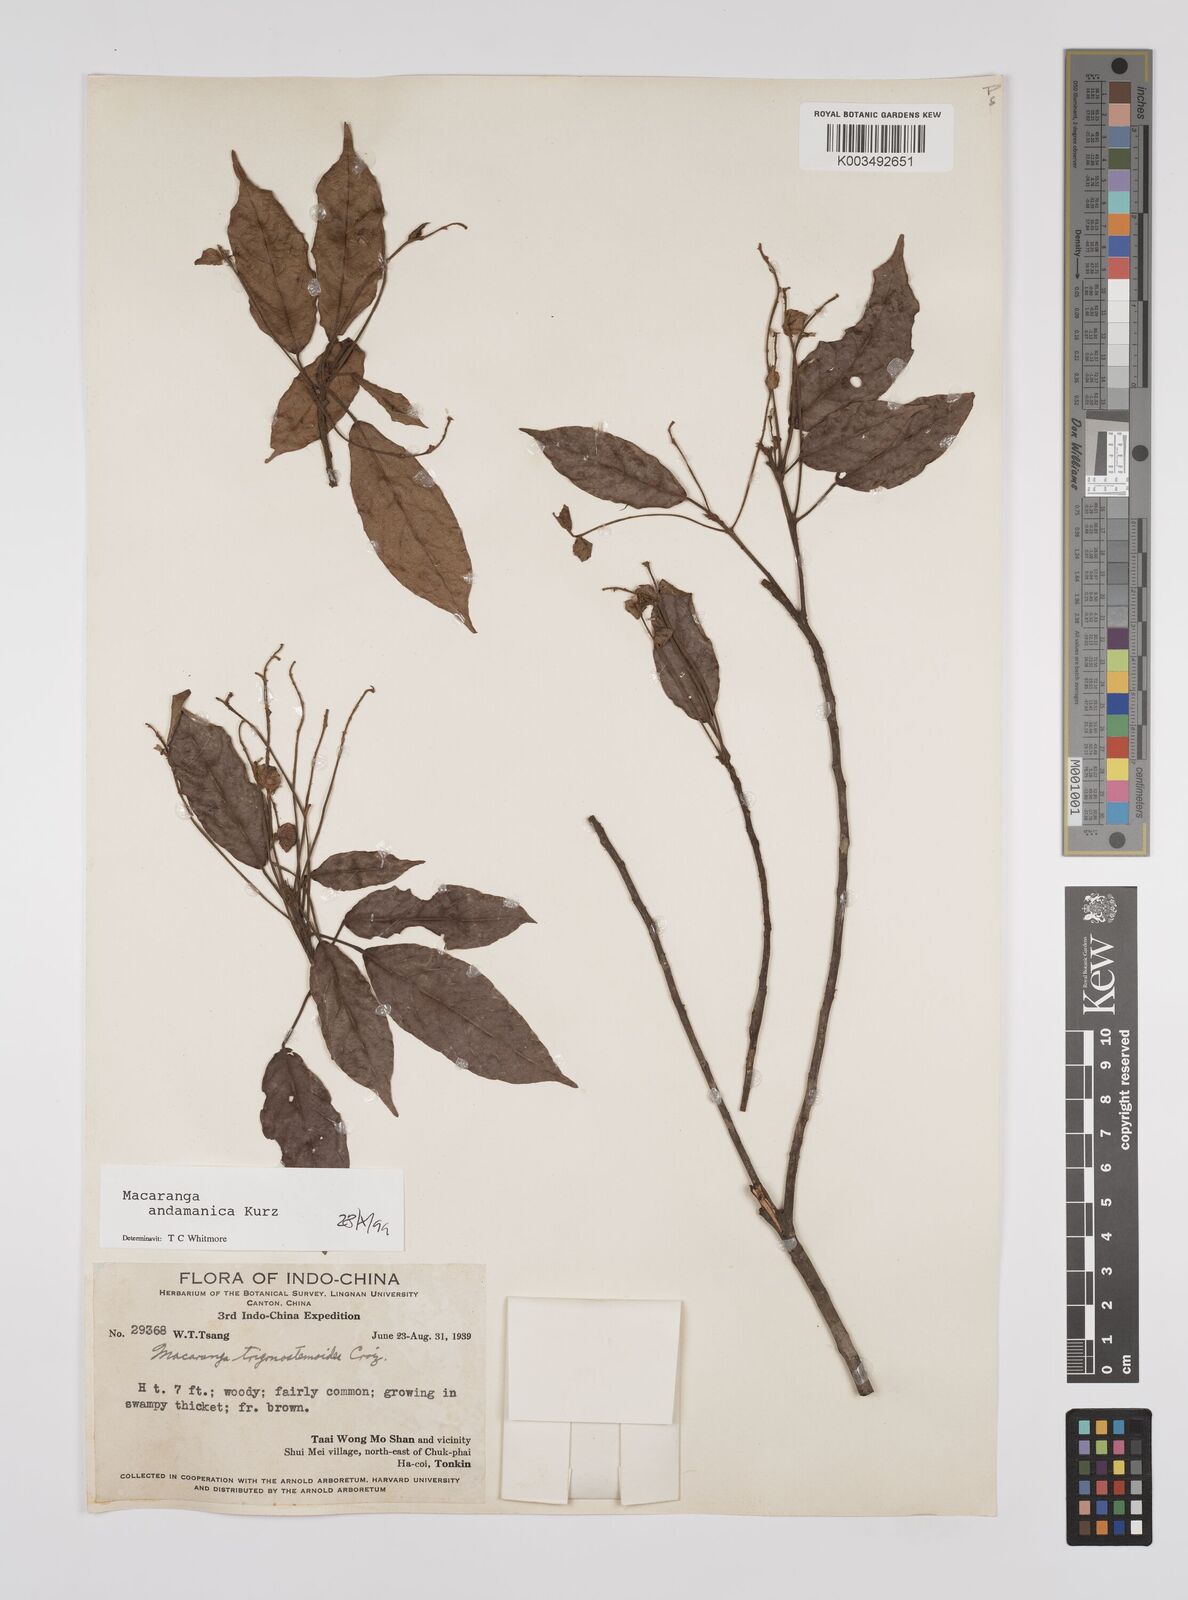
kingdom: Plantae
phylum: Tracheophyta
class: Magnoliopsida
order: Malpighiales
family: Euphorbiaceae
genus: Macaranga
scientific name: Macaranga andamanica
